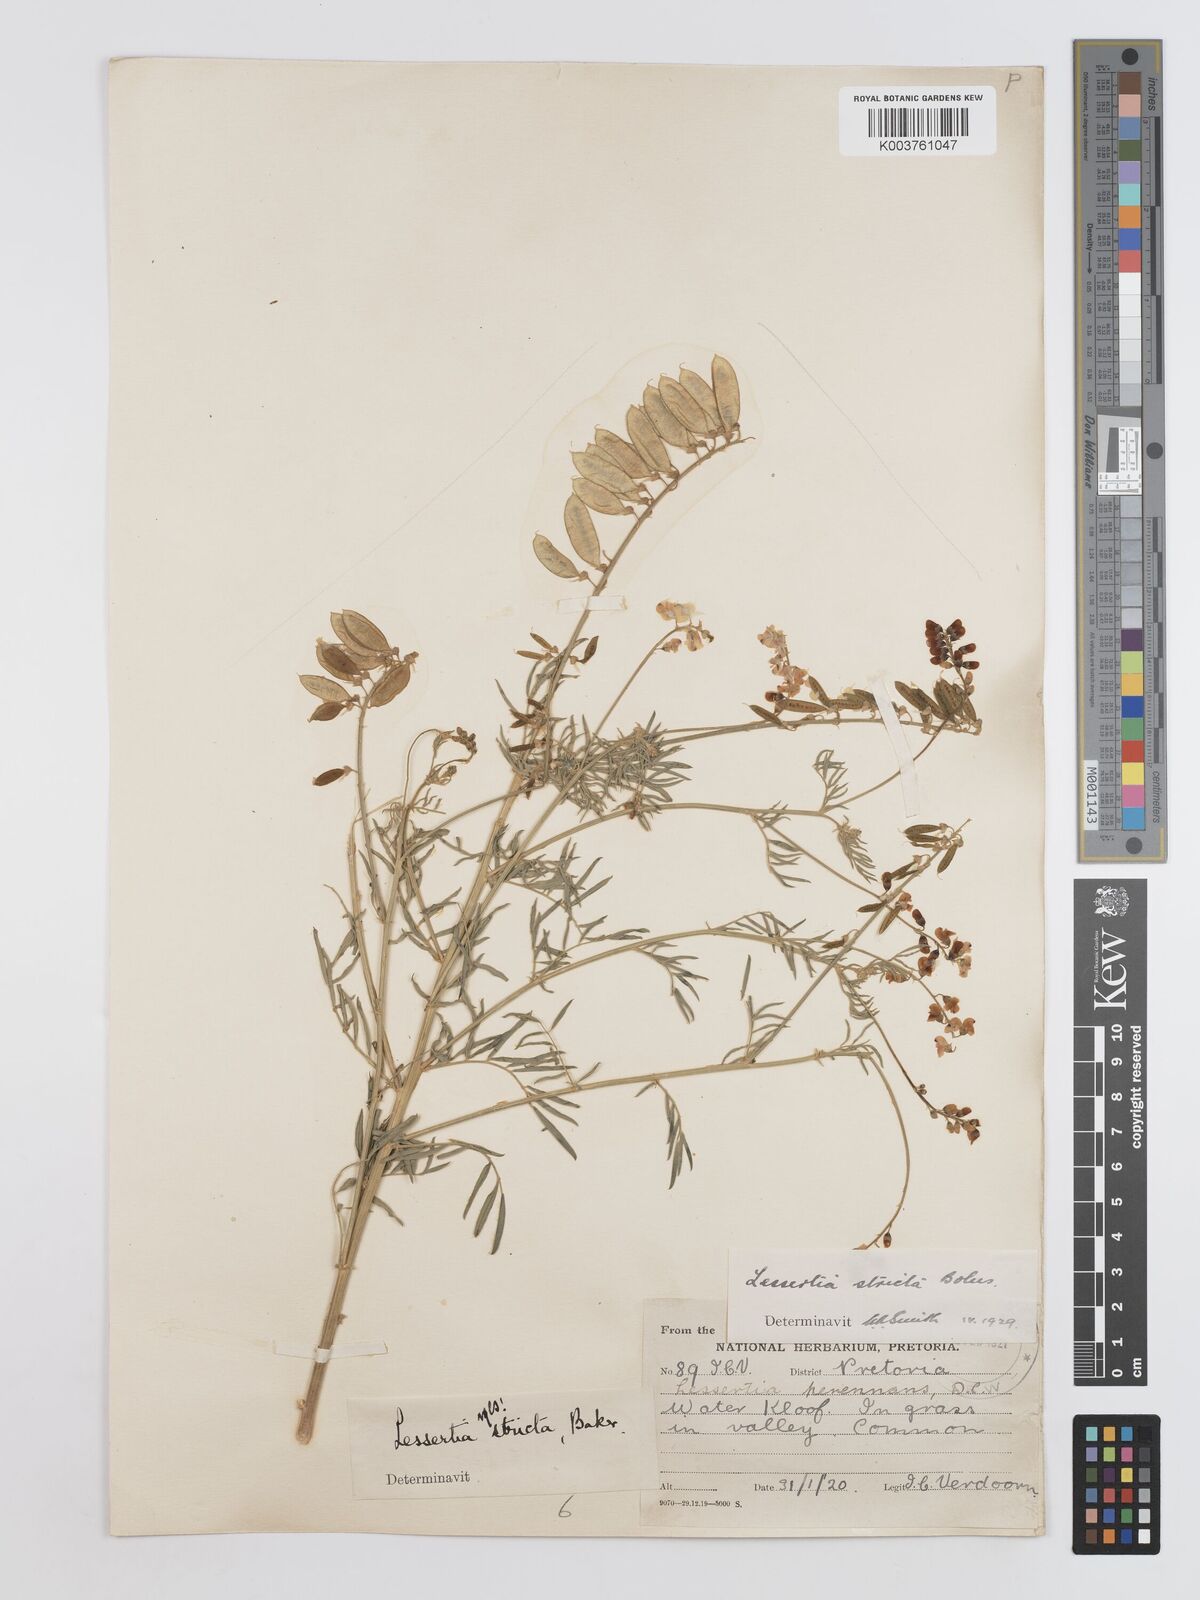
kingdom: Plantae
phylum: Tracheophyta
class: Magnoliopsida
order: Fabales
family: Fabaceae
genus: Lessertia
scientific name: Lessertia stricta
